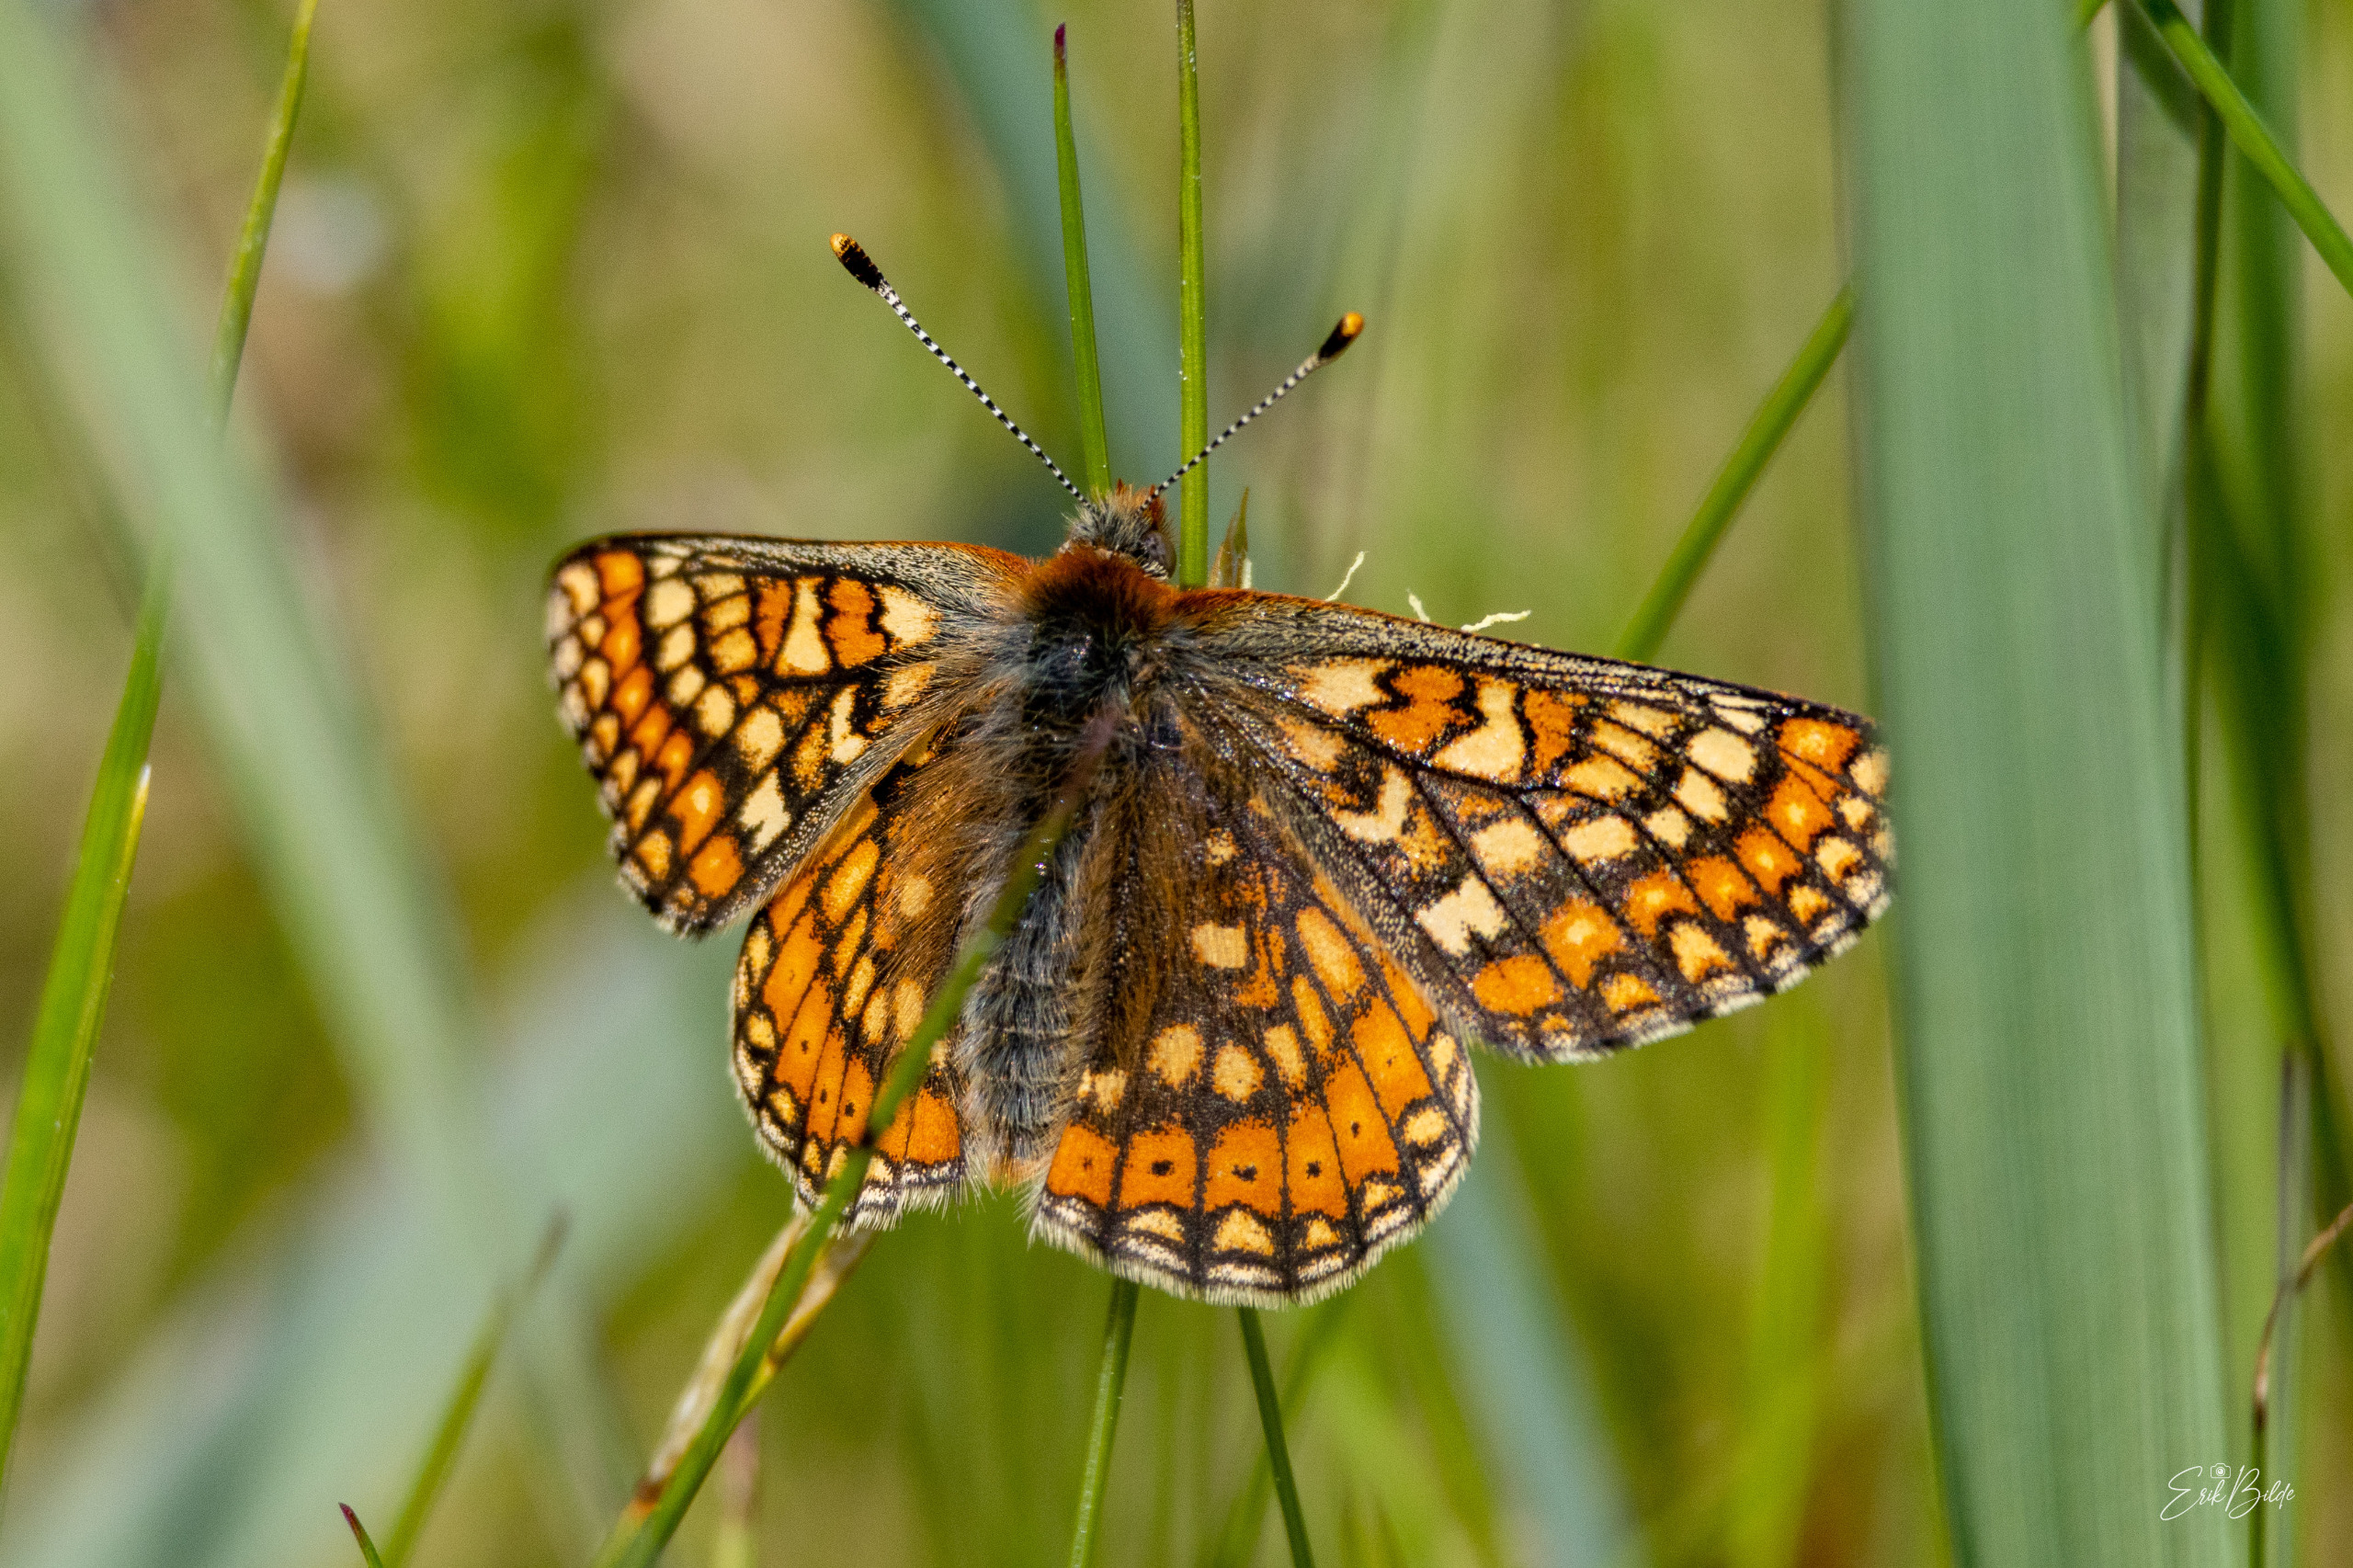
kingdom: Animalia
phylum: Arthropoda
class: Insecta
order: Lepidoptera
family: Nymphalidae
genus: Euphydryas
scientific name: Euphydryas aurinia
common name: Hedepletvinge
